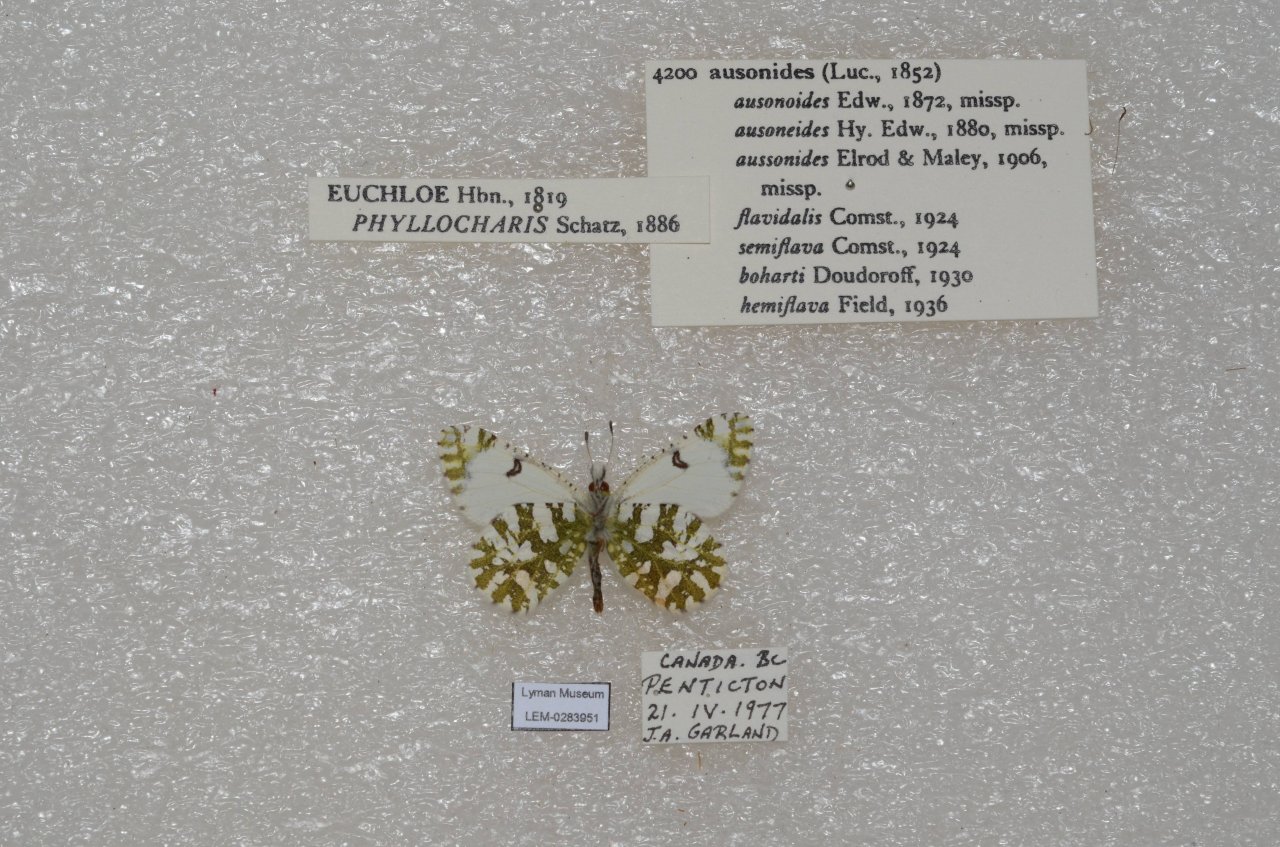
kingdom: Animalia
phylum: Arthropoda
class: Insecta
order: Lepidoptera
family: Pieridae
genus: Euchloe
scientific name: Euchloe ausonides
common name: Large Marble
